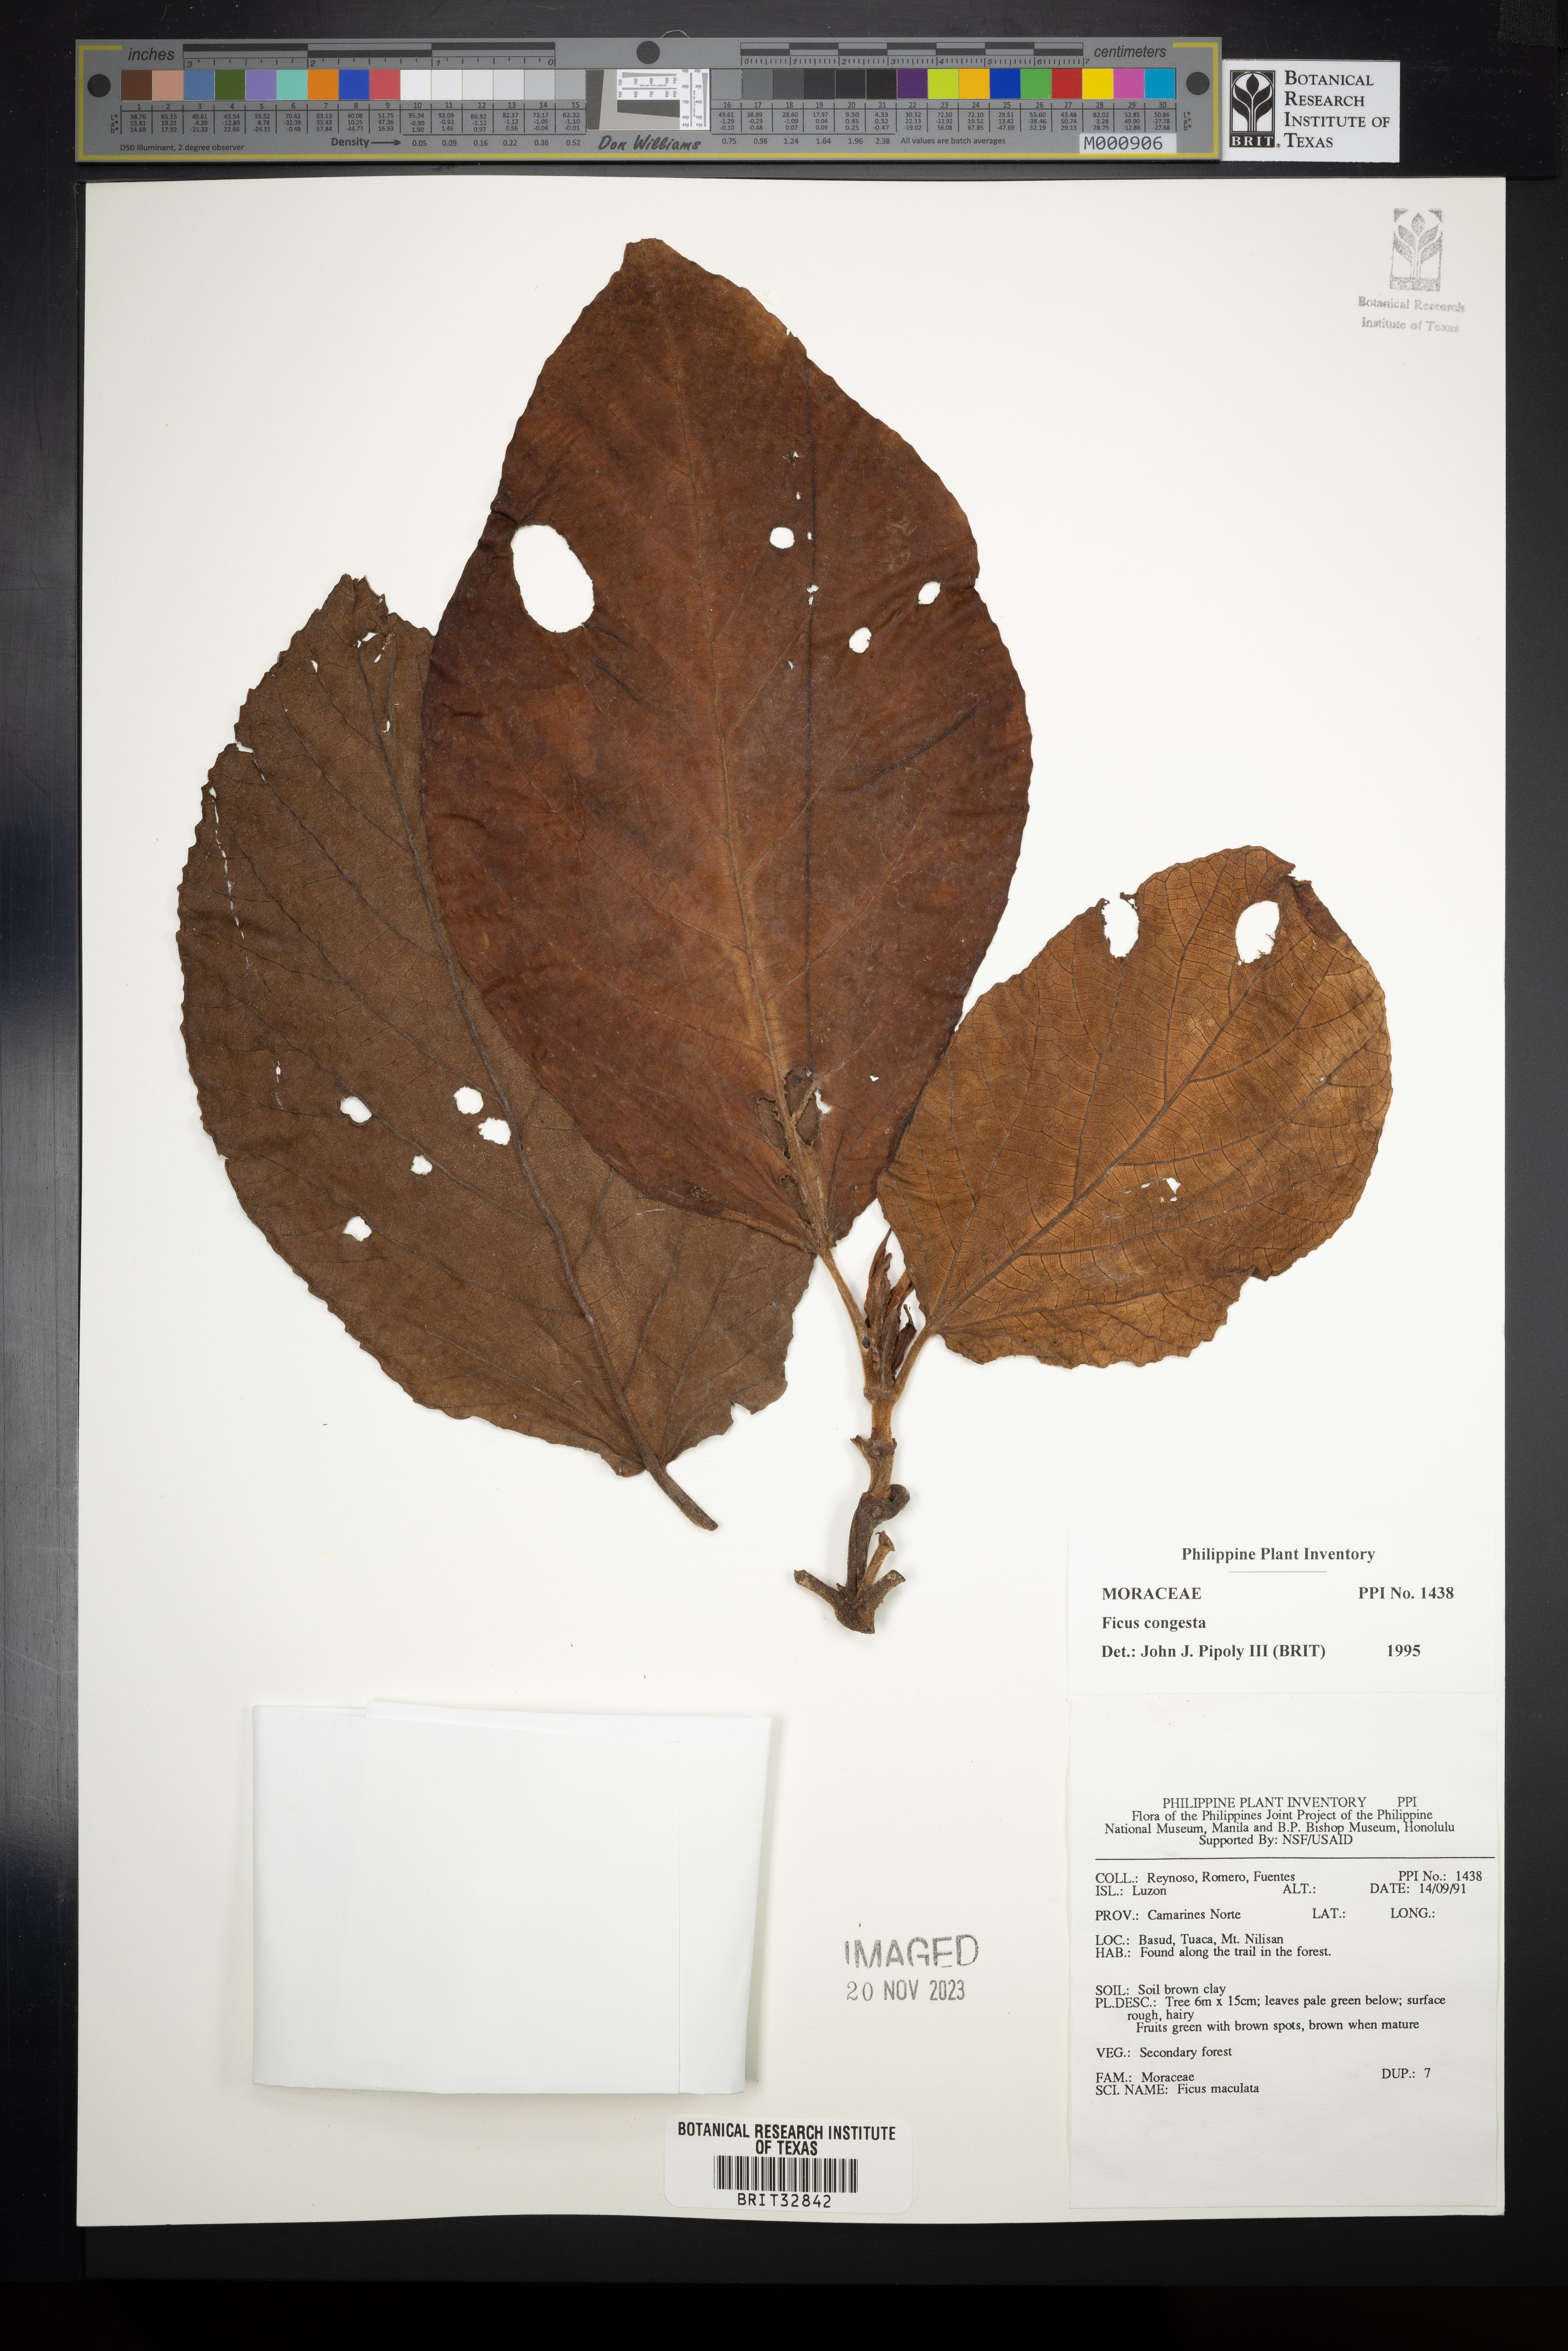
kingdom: Plantae
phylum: Tracheophyta
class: Magnoliopsida
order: Rosales
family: Moraceae
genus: Ficus
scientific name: Ficus congesta
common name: Cluster fig
